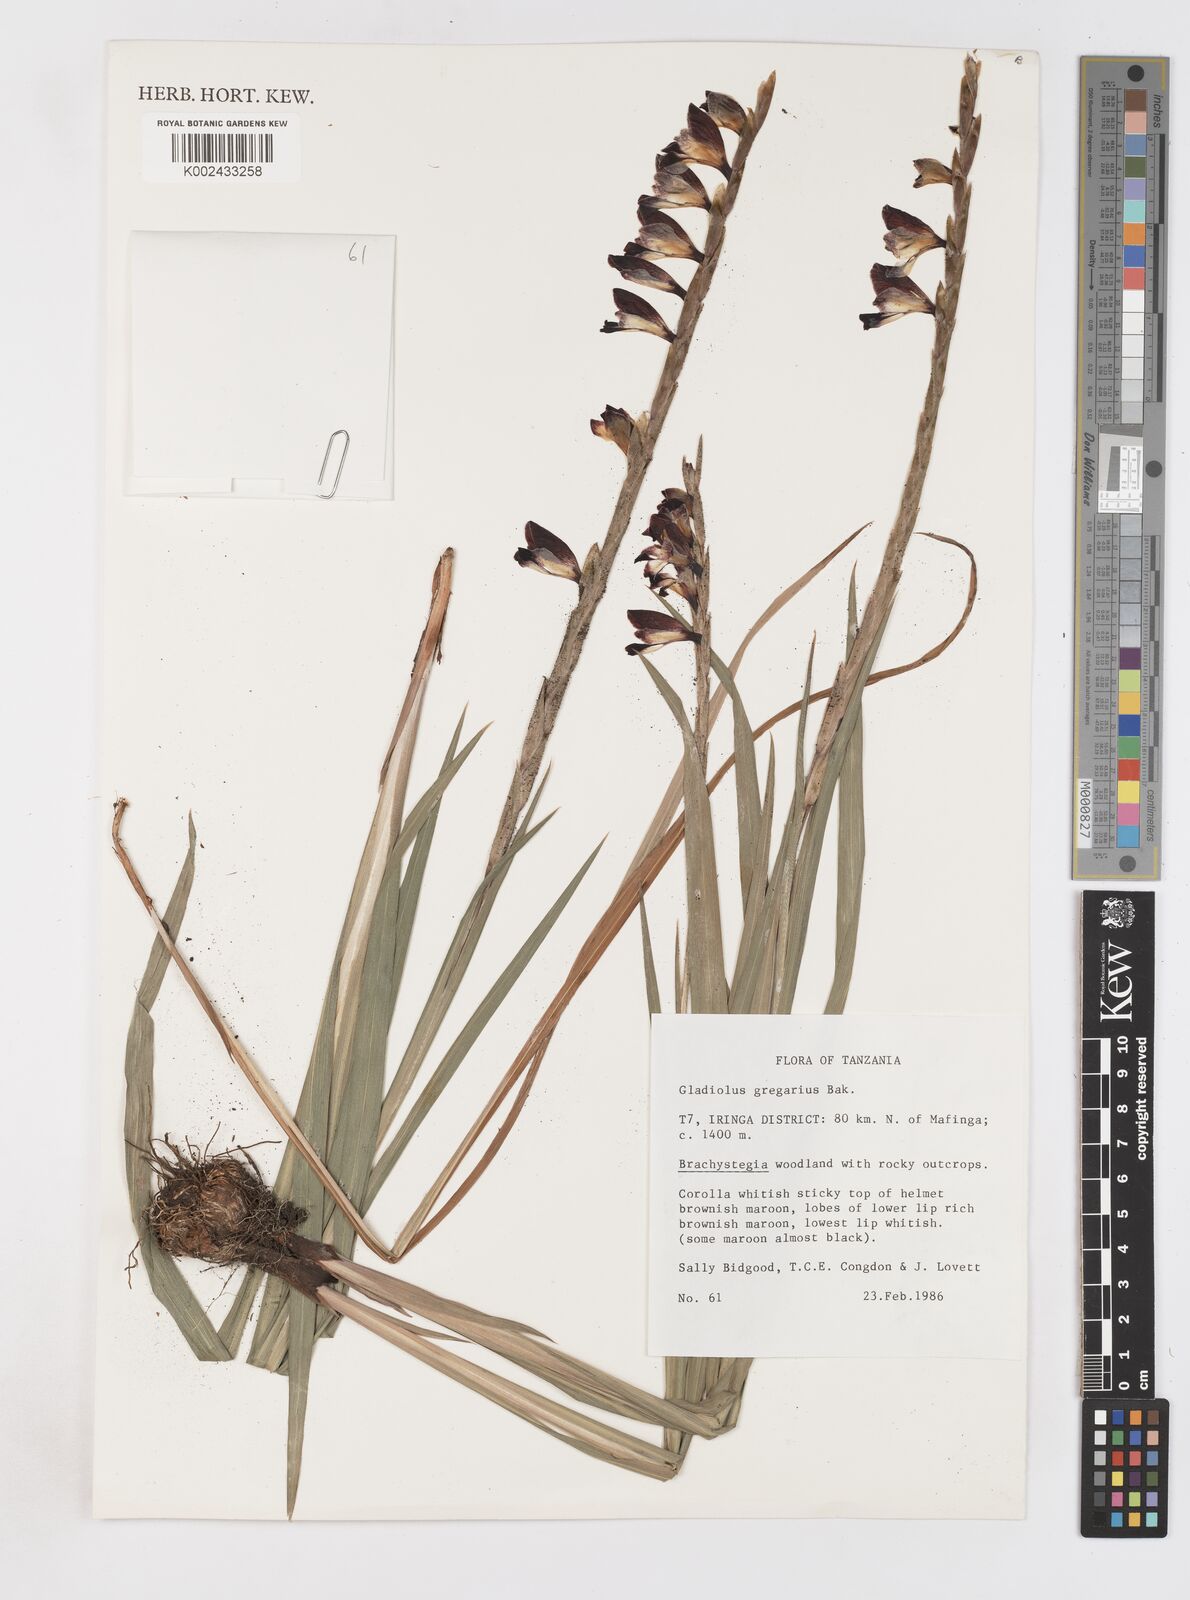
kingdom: Plantae
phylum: Tracheophyta
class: Liliopsida
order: Asparagales
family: Iridaceae
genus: Gladiolus
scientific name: Gladiolus gregarius
